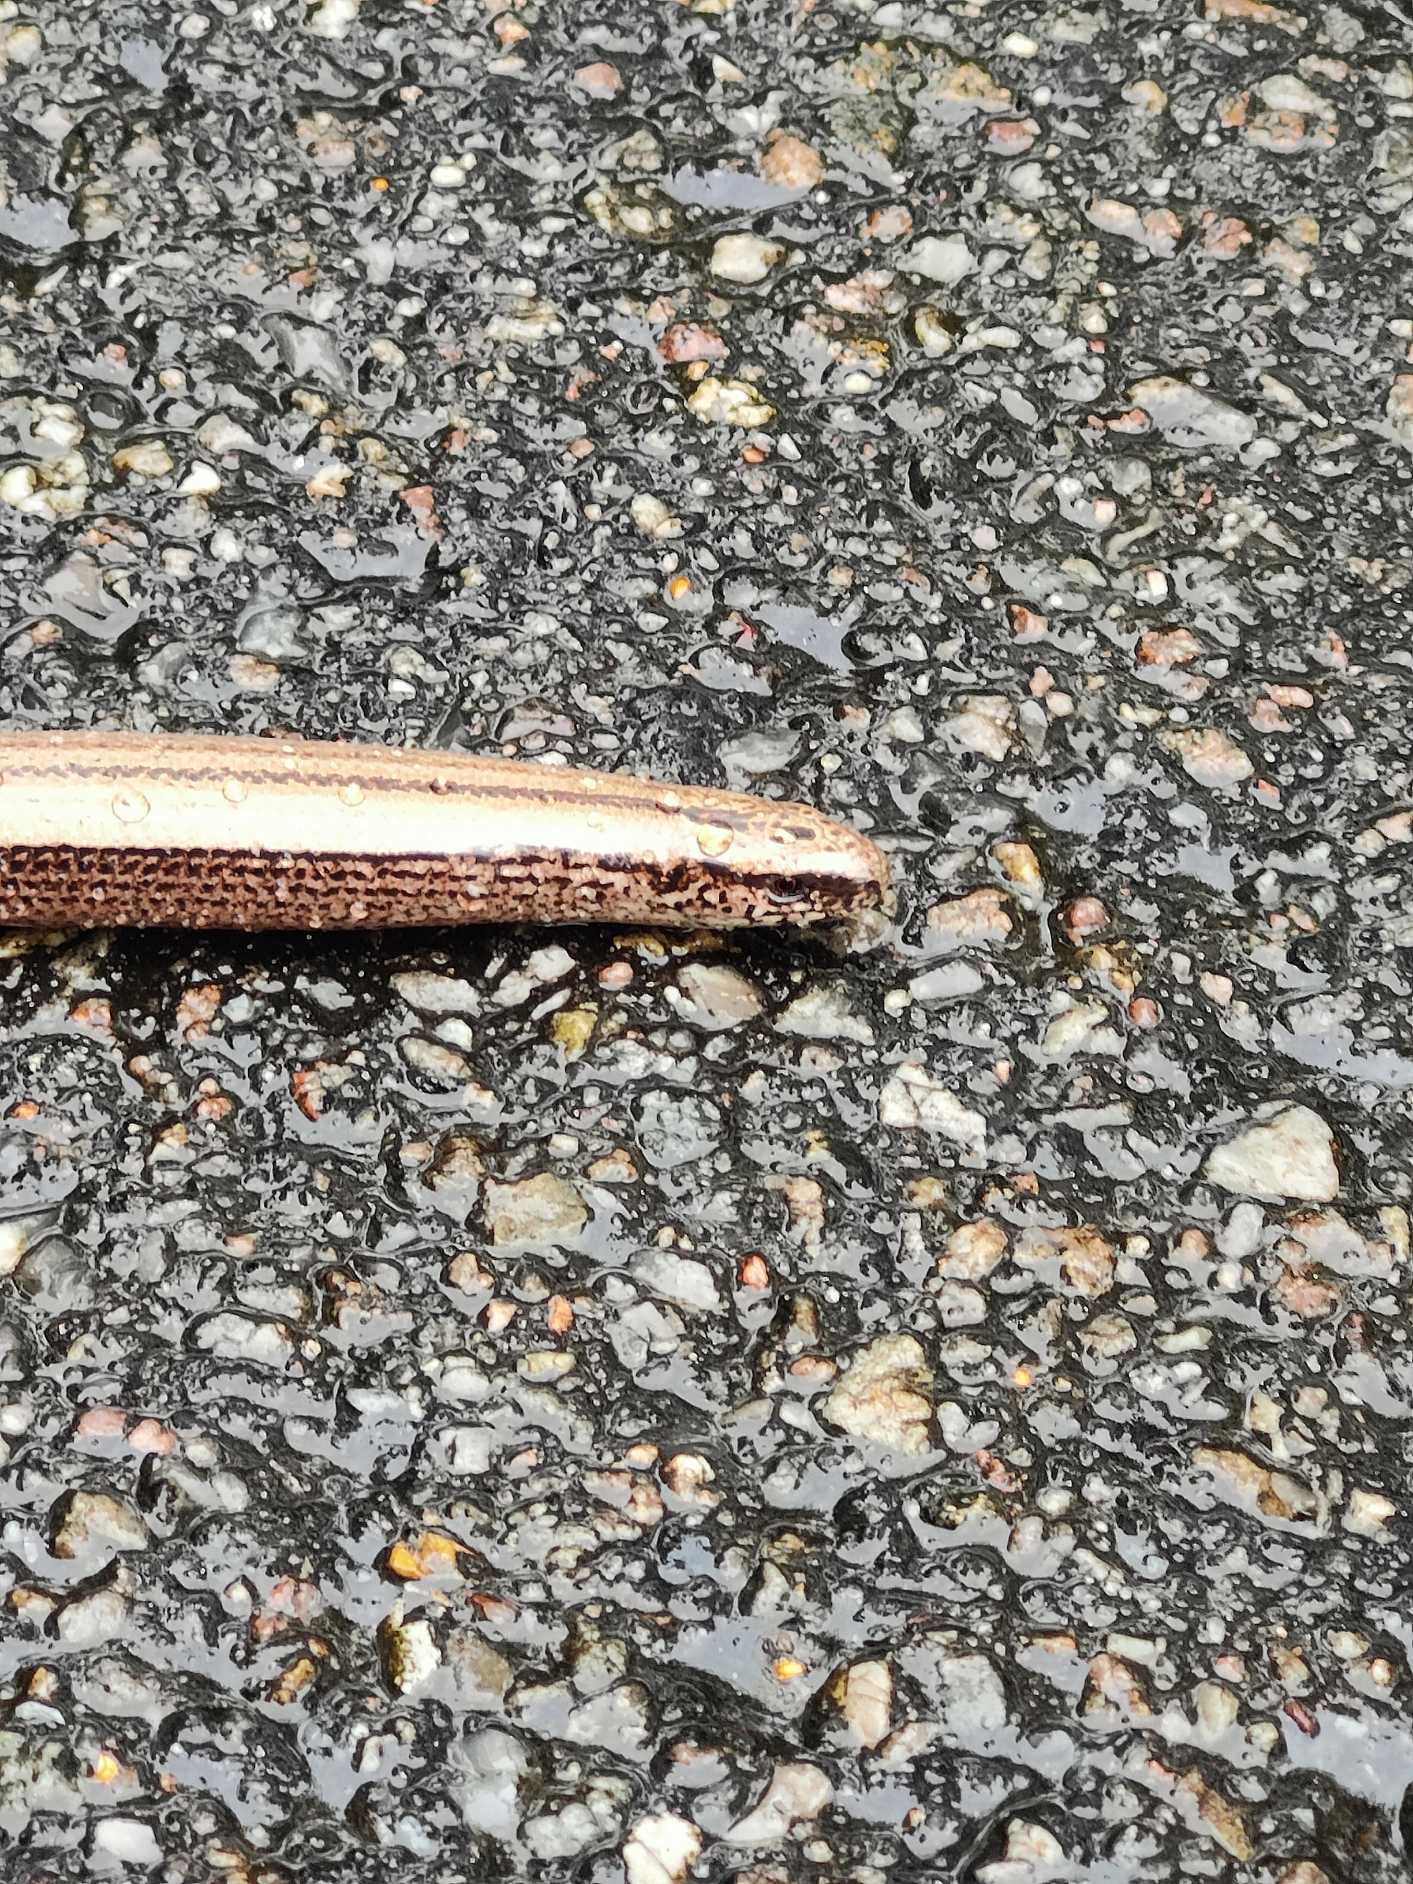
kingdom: Animalia
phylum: Chordata
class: Squamata
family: Anguidae
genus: Anguis
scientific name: Anguis fragilis
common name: Stålorm
